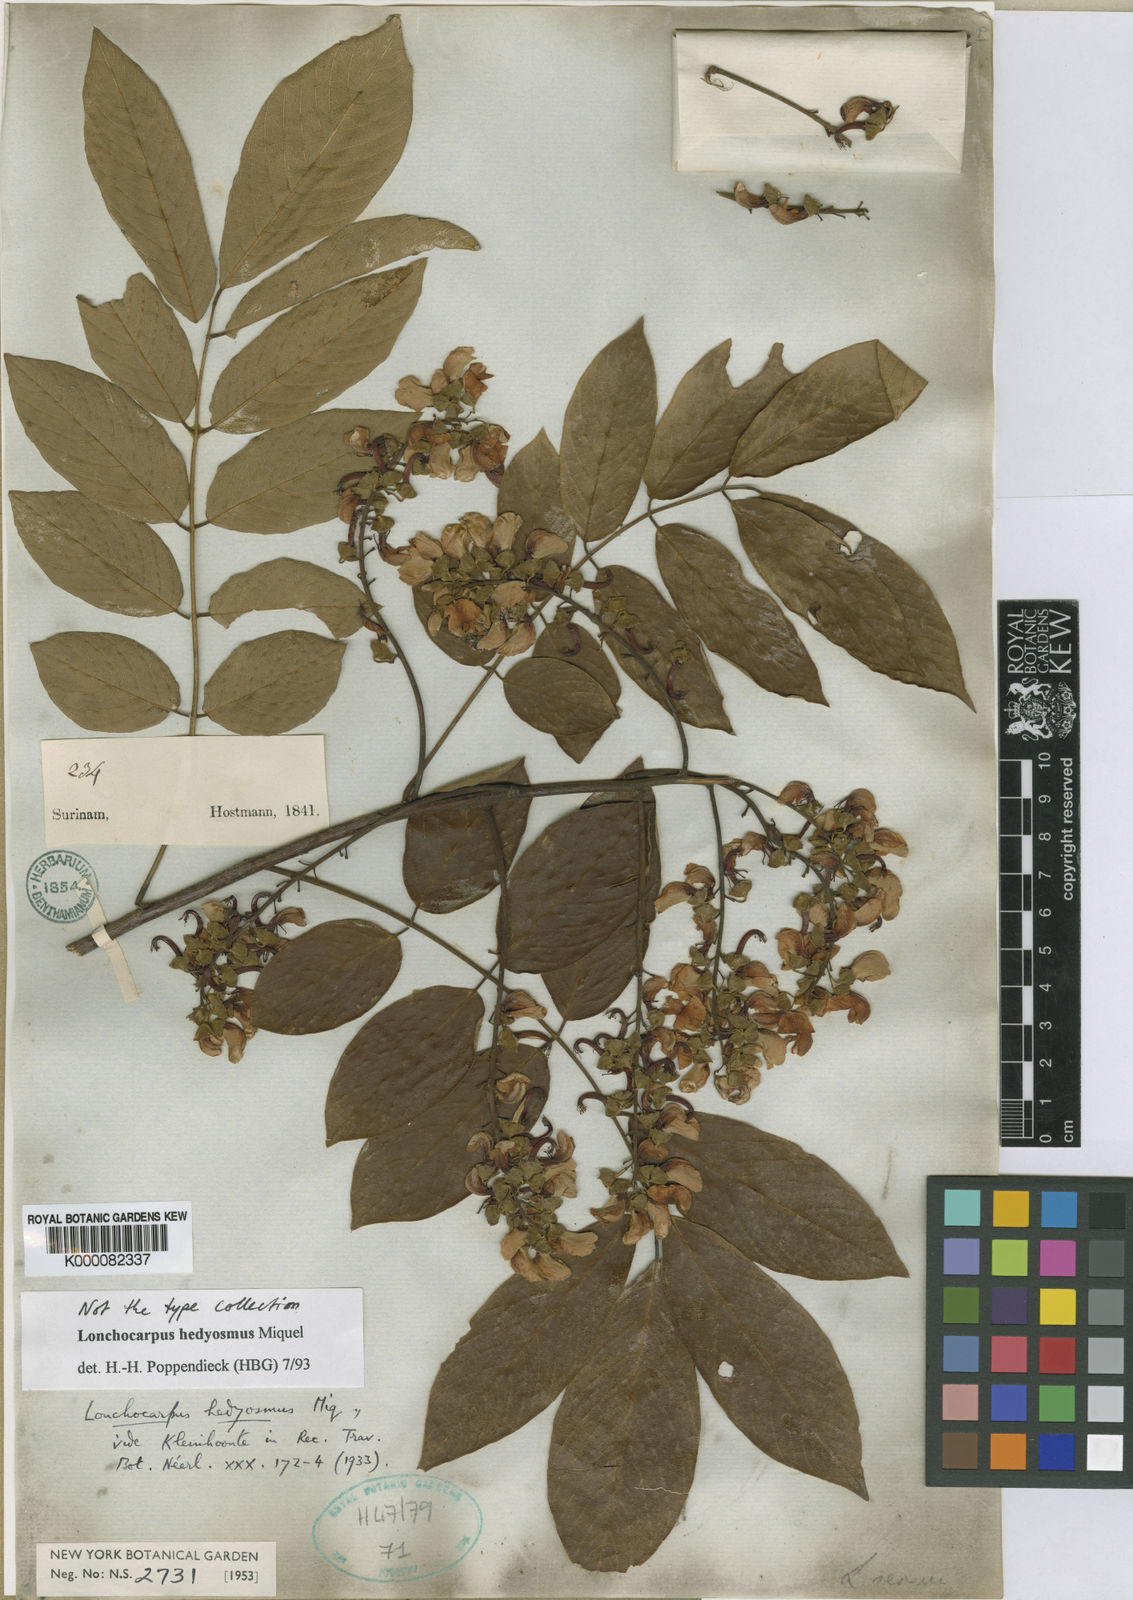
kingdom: Plantae
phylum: Tracheophyta
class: Magnoliopsida
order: Fabales
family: Fabaceae
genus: Lonchocarpus
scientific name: Lonchocarpus hedyosmus
